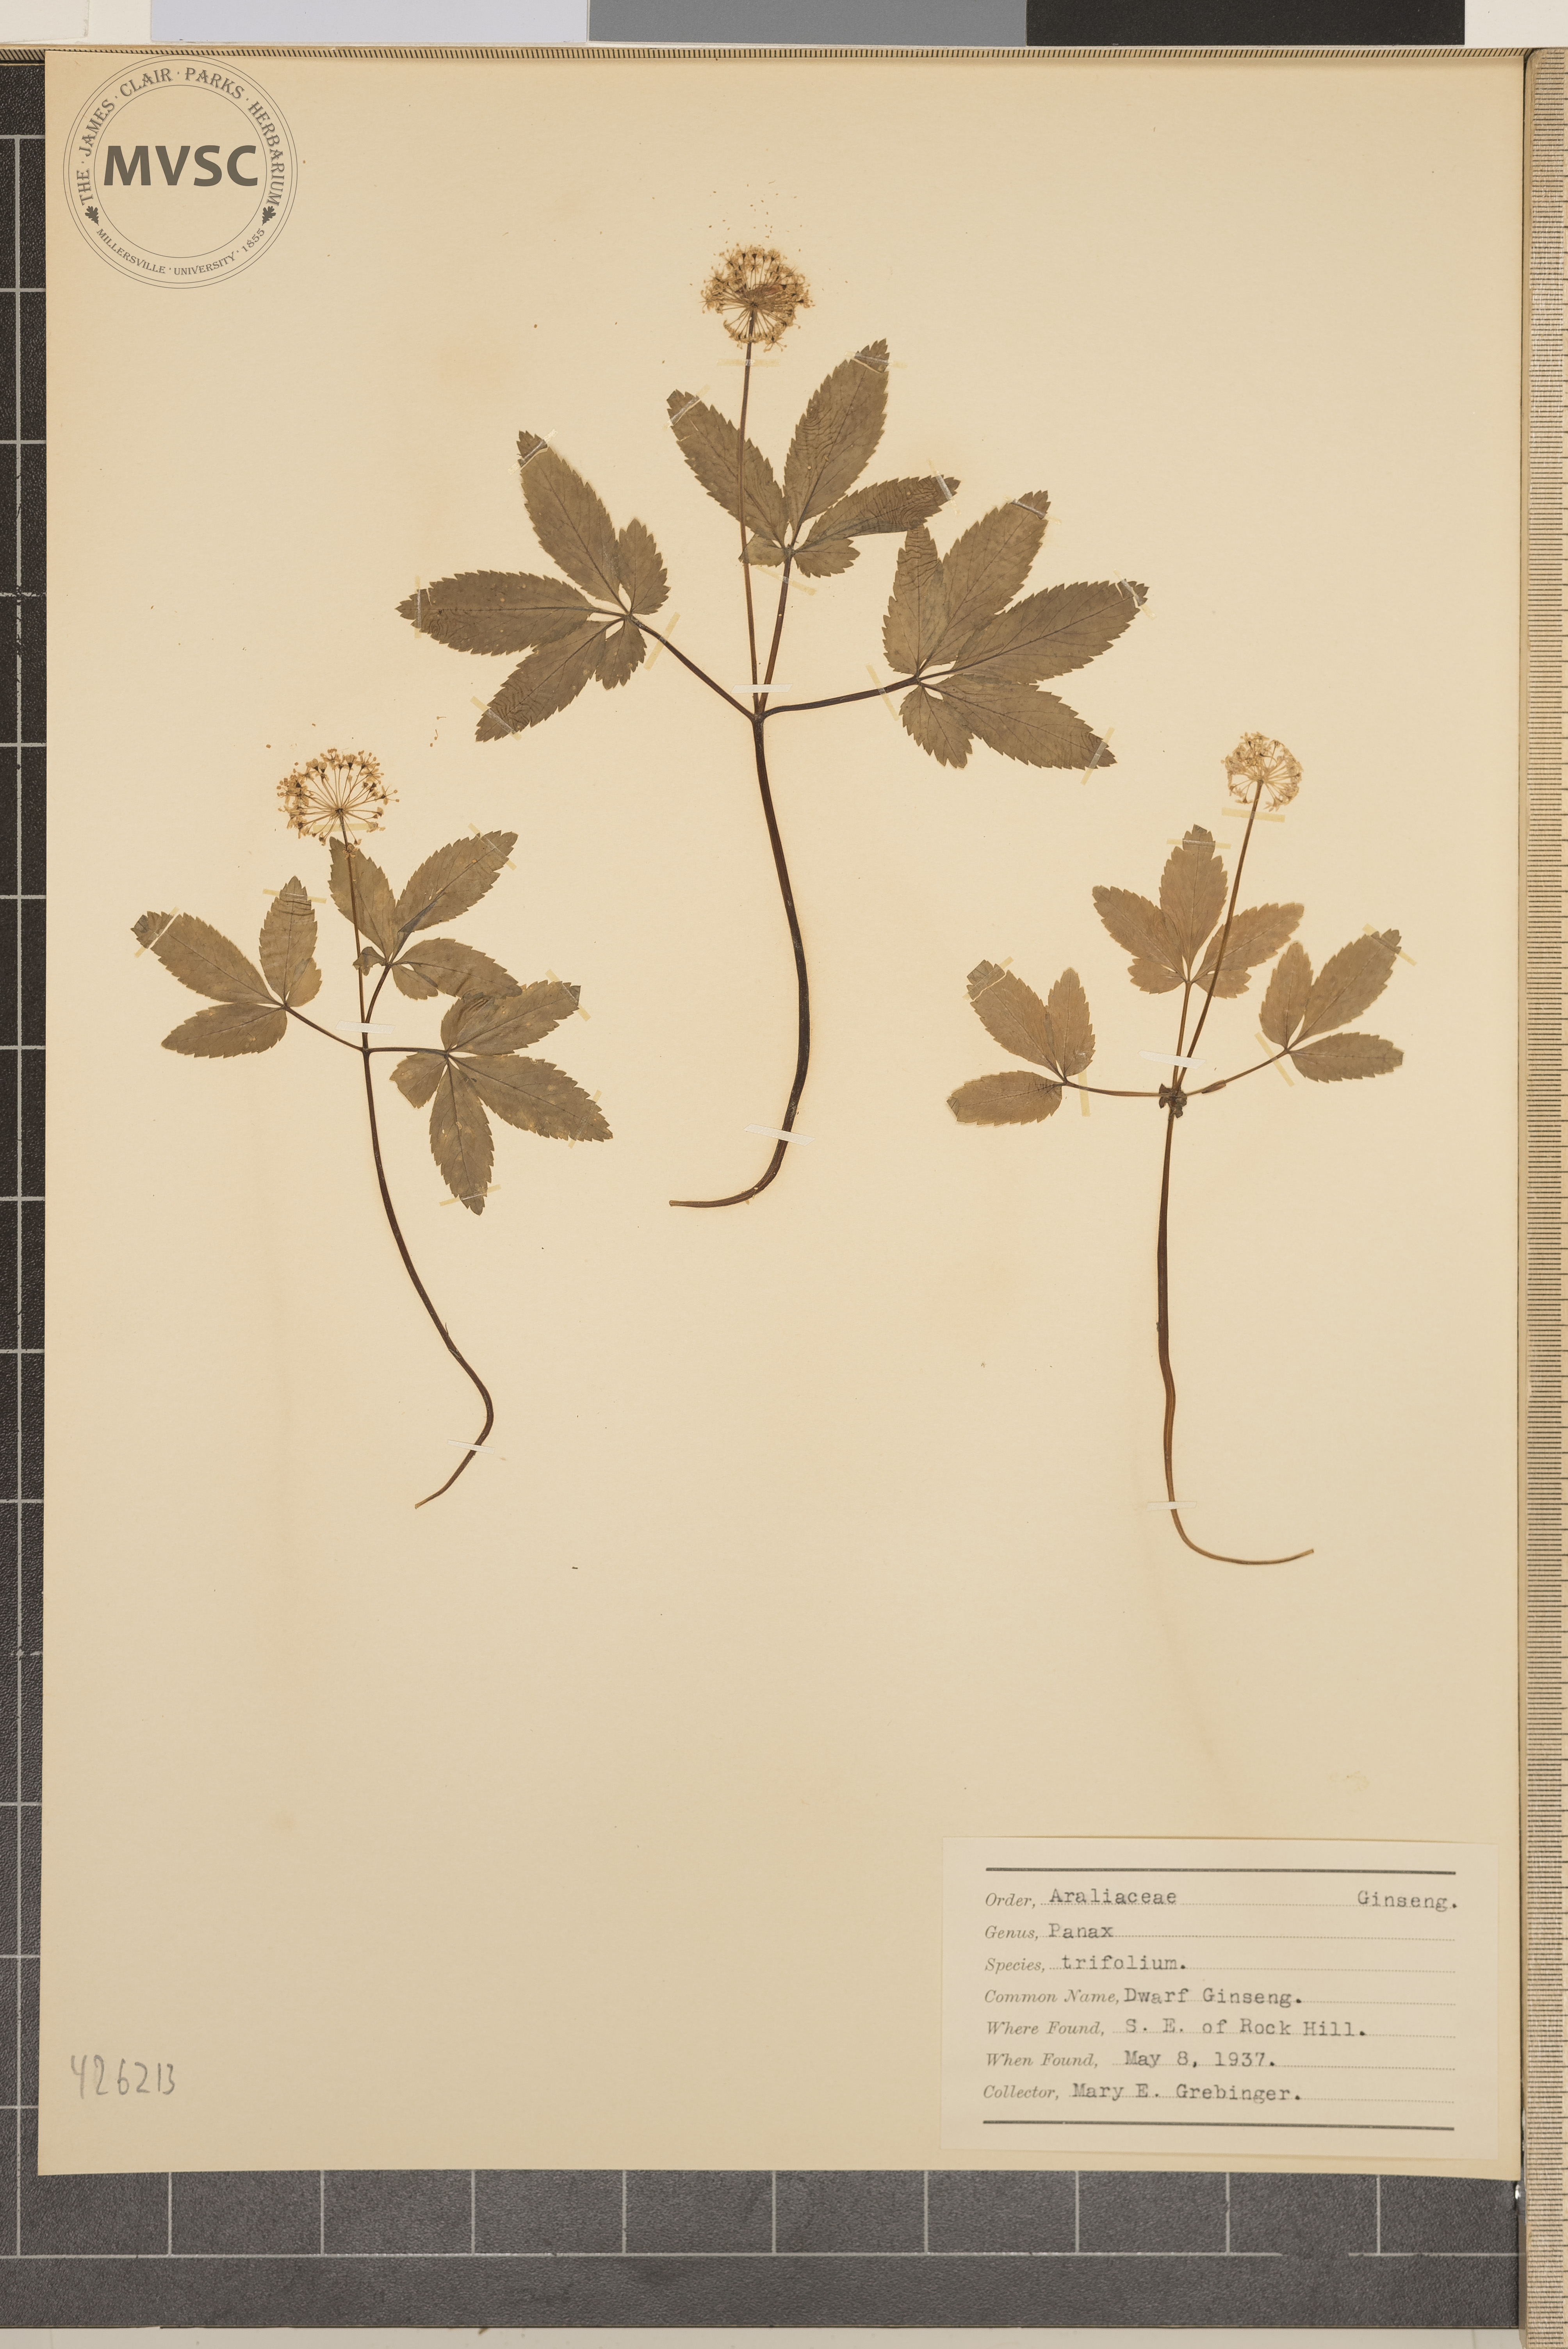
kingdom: Plantae
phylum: Tracheophyta
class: Magnoliopsida
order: Apiales
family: Araliaceae
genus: Panax
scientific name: Panax trifolius
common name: Dwarf Ginseng
